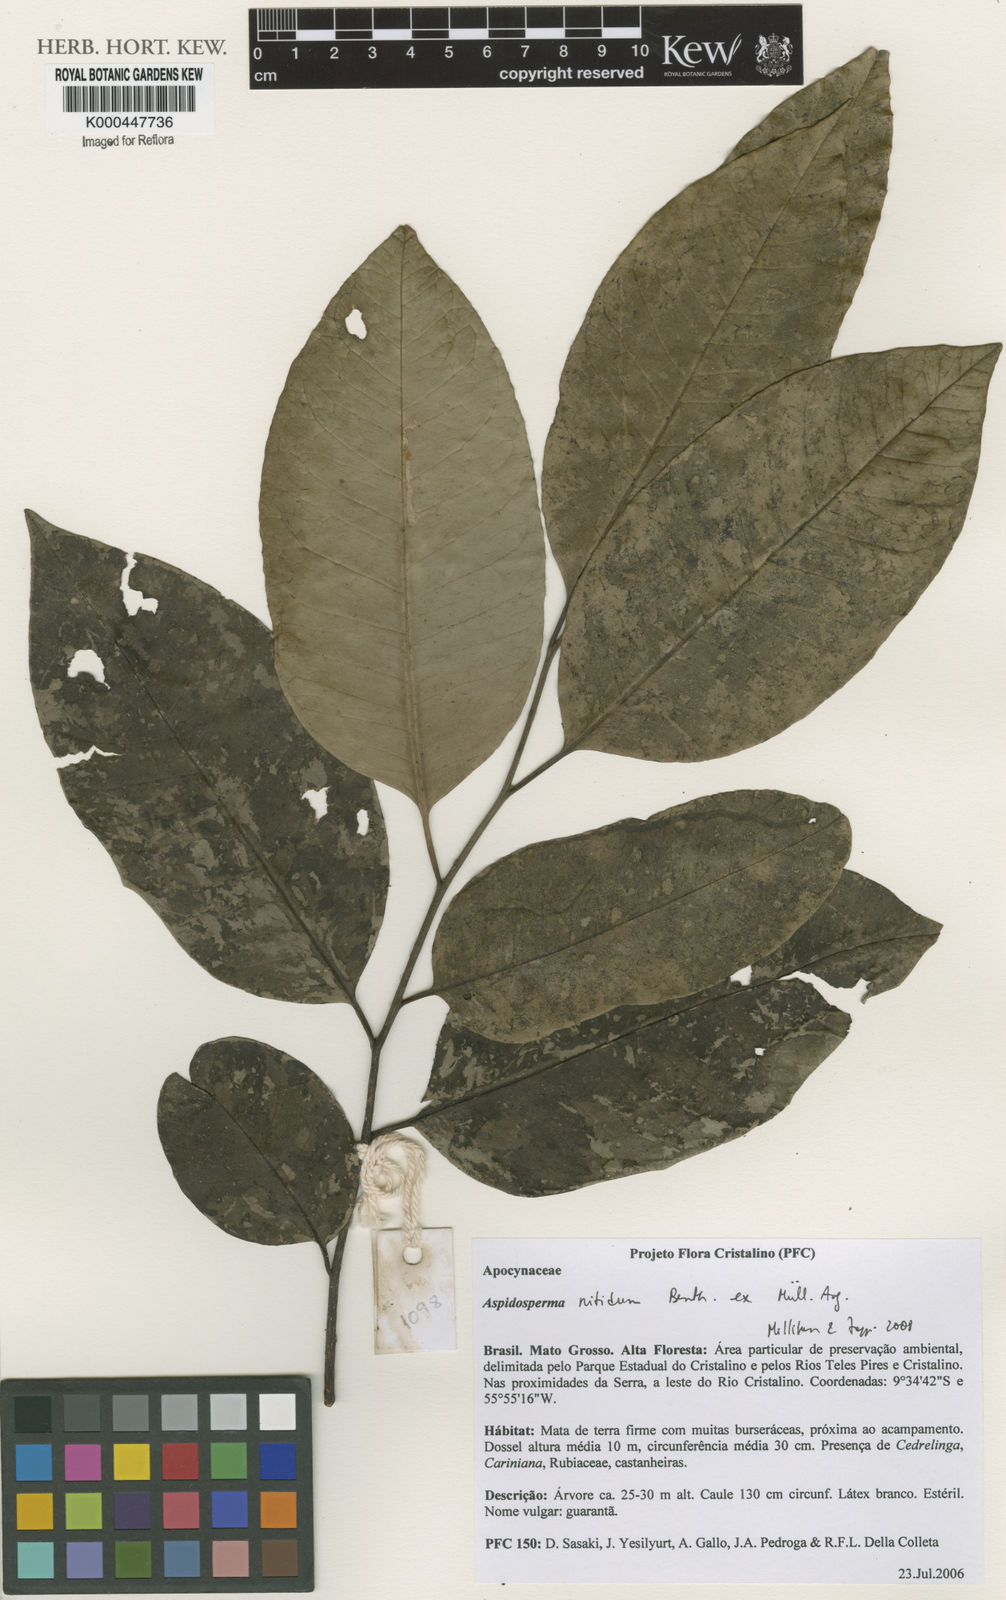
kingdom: Plantae
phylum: Tracheophyta
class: Magnoliopsida
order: Gentianales
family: Apocynaceae
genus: Aspidosperma
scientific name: Aspidosperma
